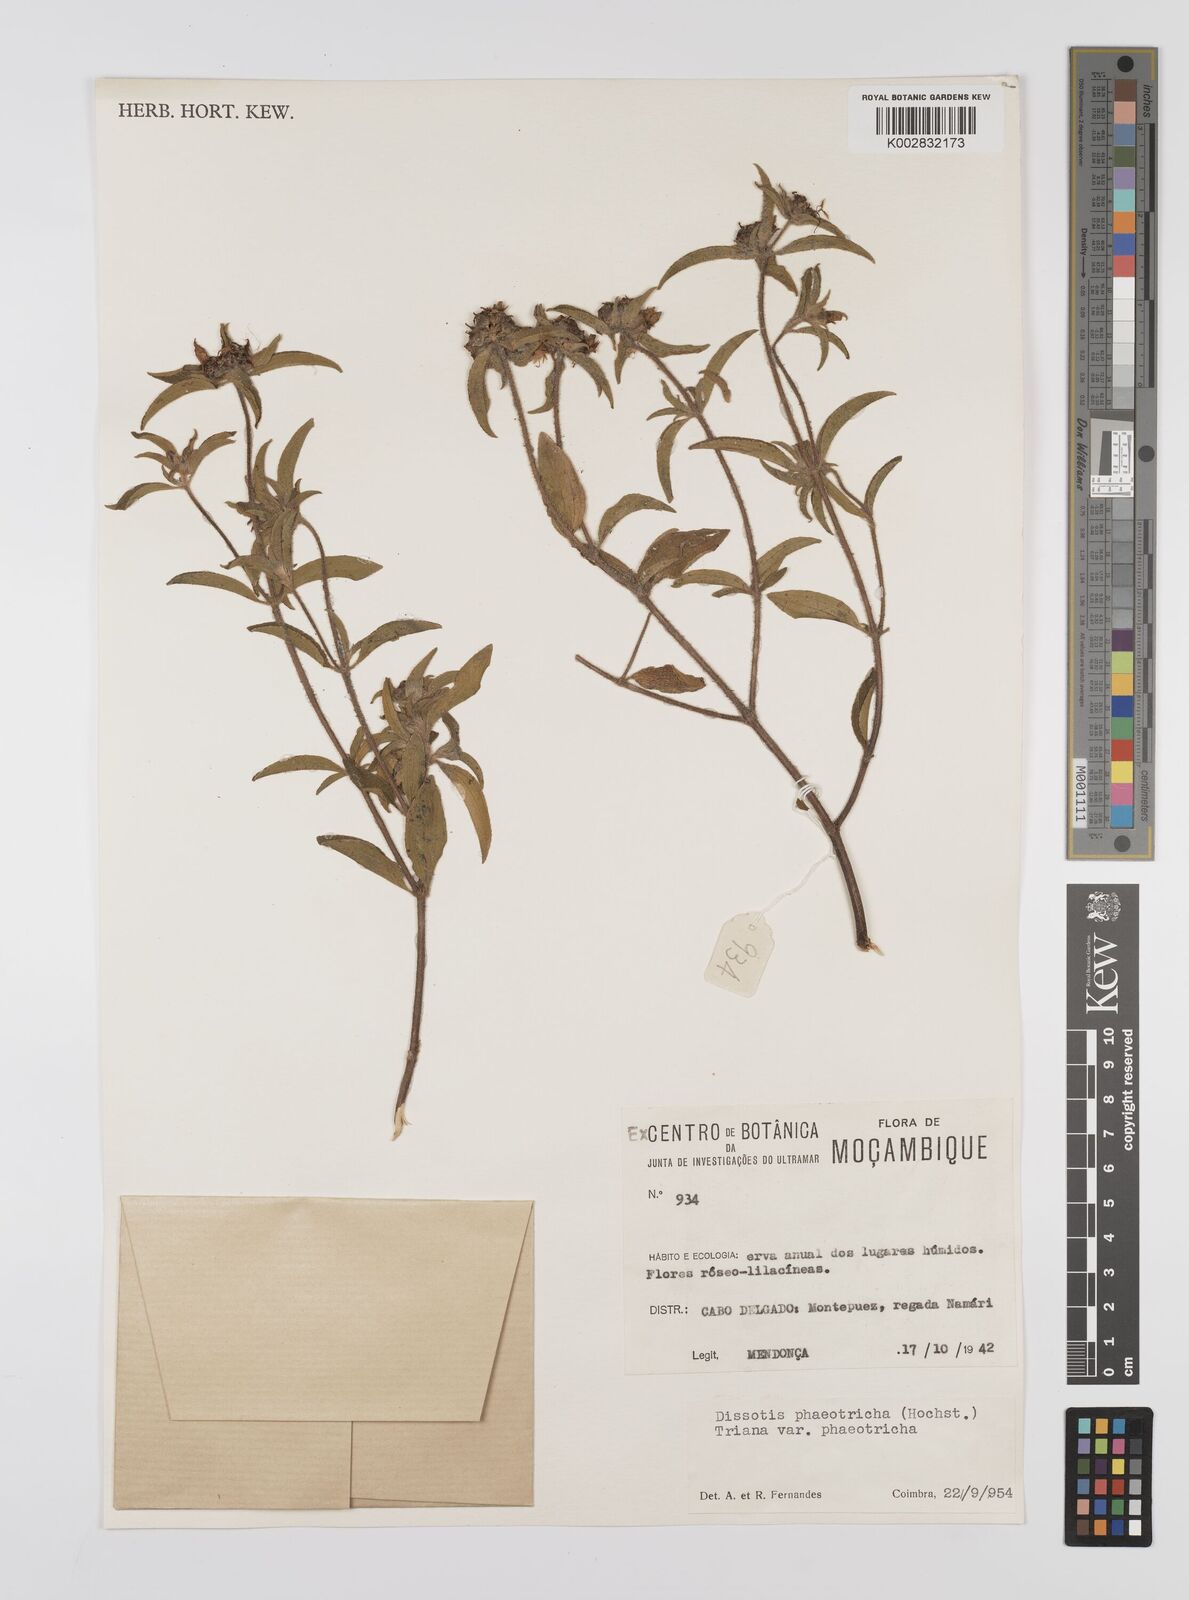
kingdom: Plantae
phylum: Tracheophyta
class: Magnoliopsida
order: Myrtales
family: Melastomataceae
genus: Antherotoma
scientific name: Antherotoma phaeotricha
